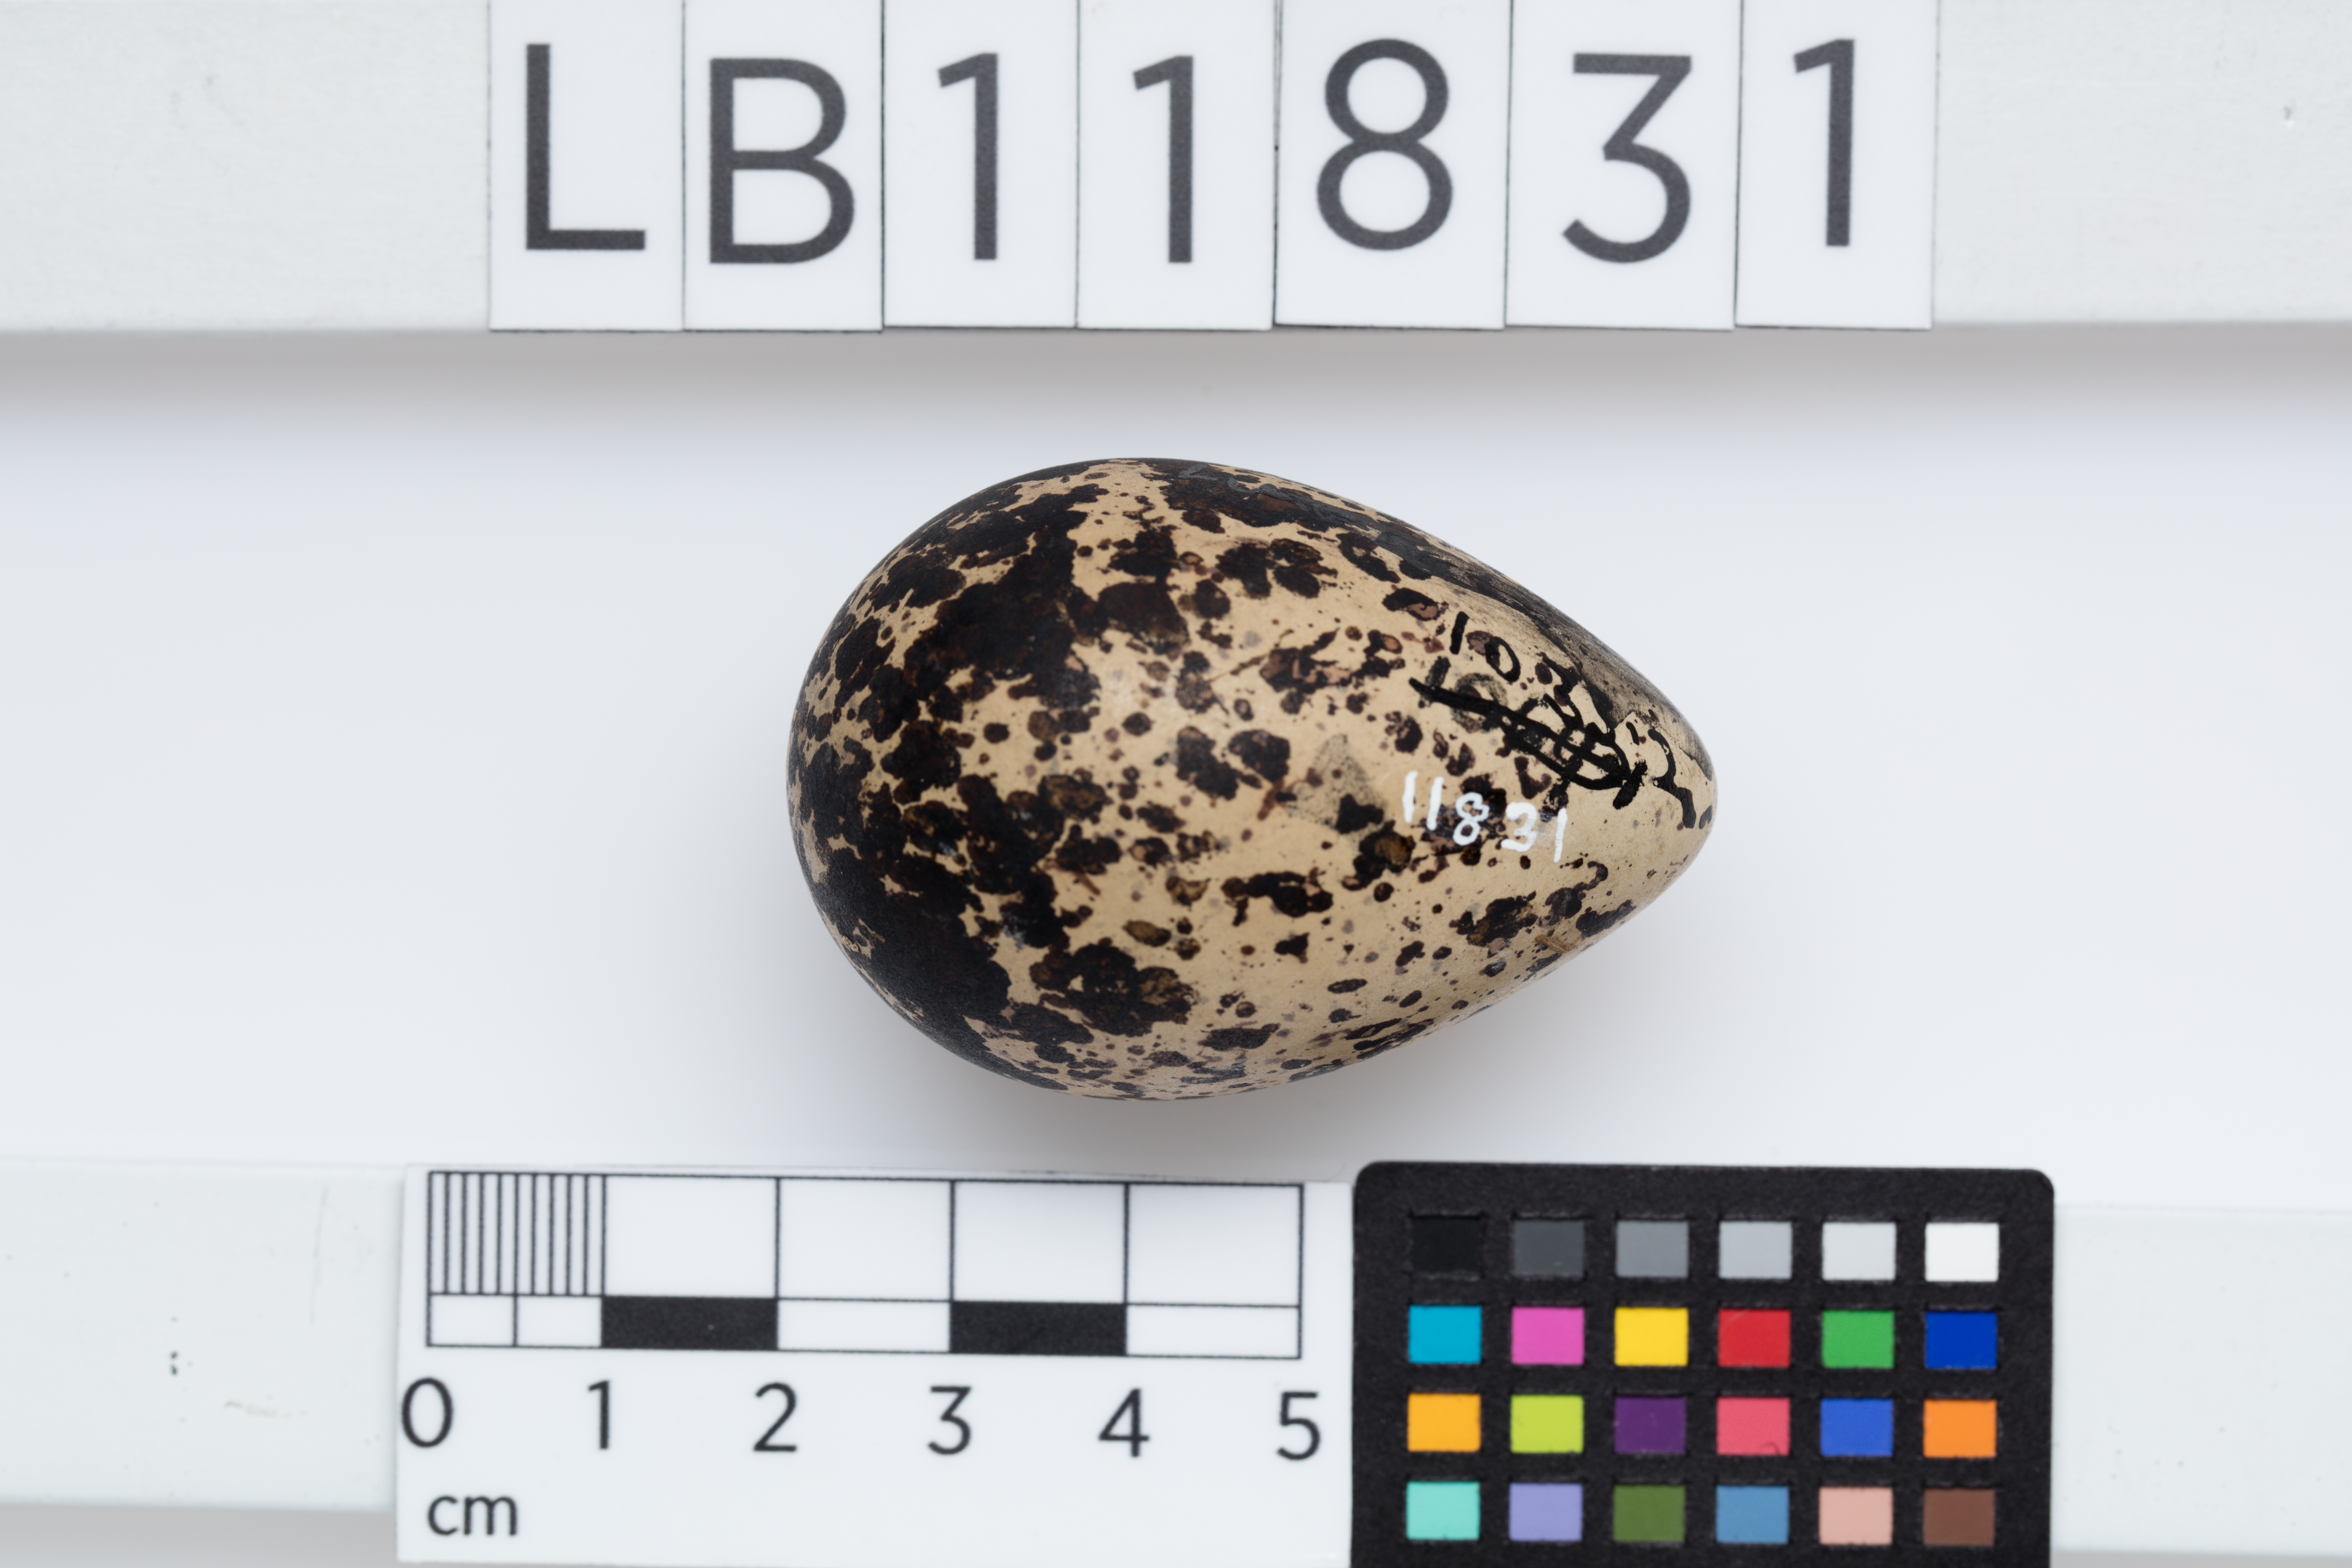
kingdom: Animalia
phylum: Chordata
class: Aves
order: Charadriiformes
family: Scolopacidae
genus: Limosa
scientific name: Limosa limosa
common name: Black-tailed godwit
